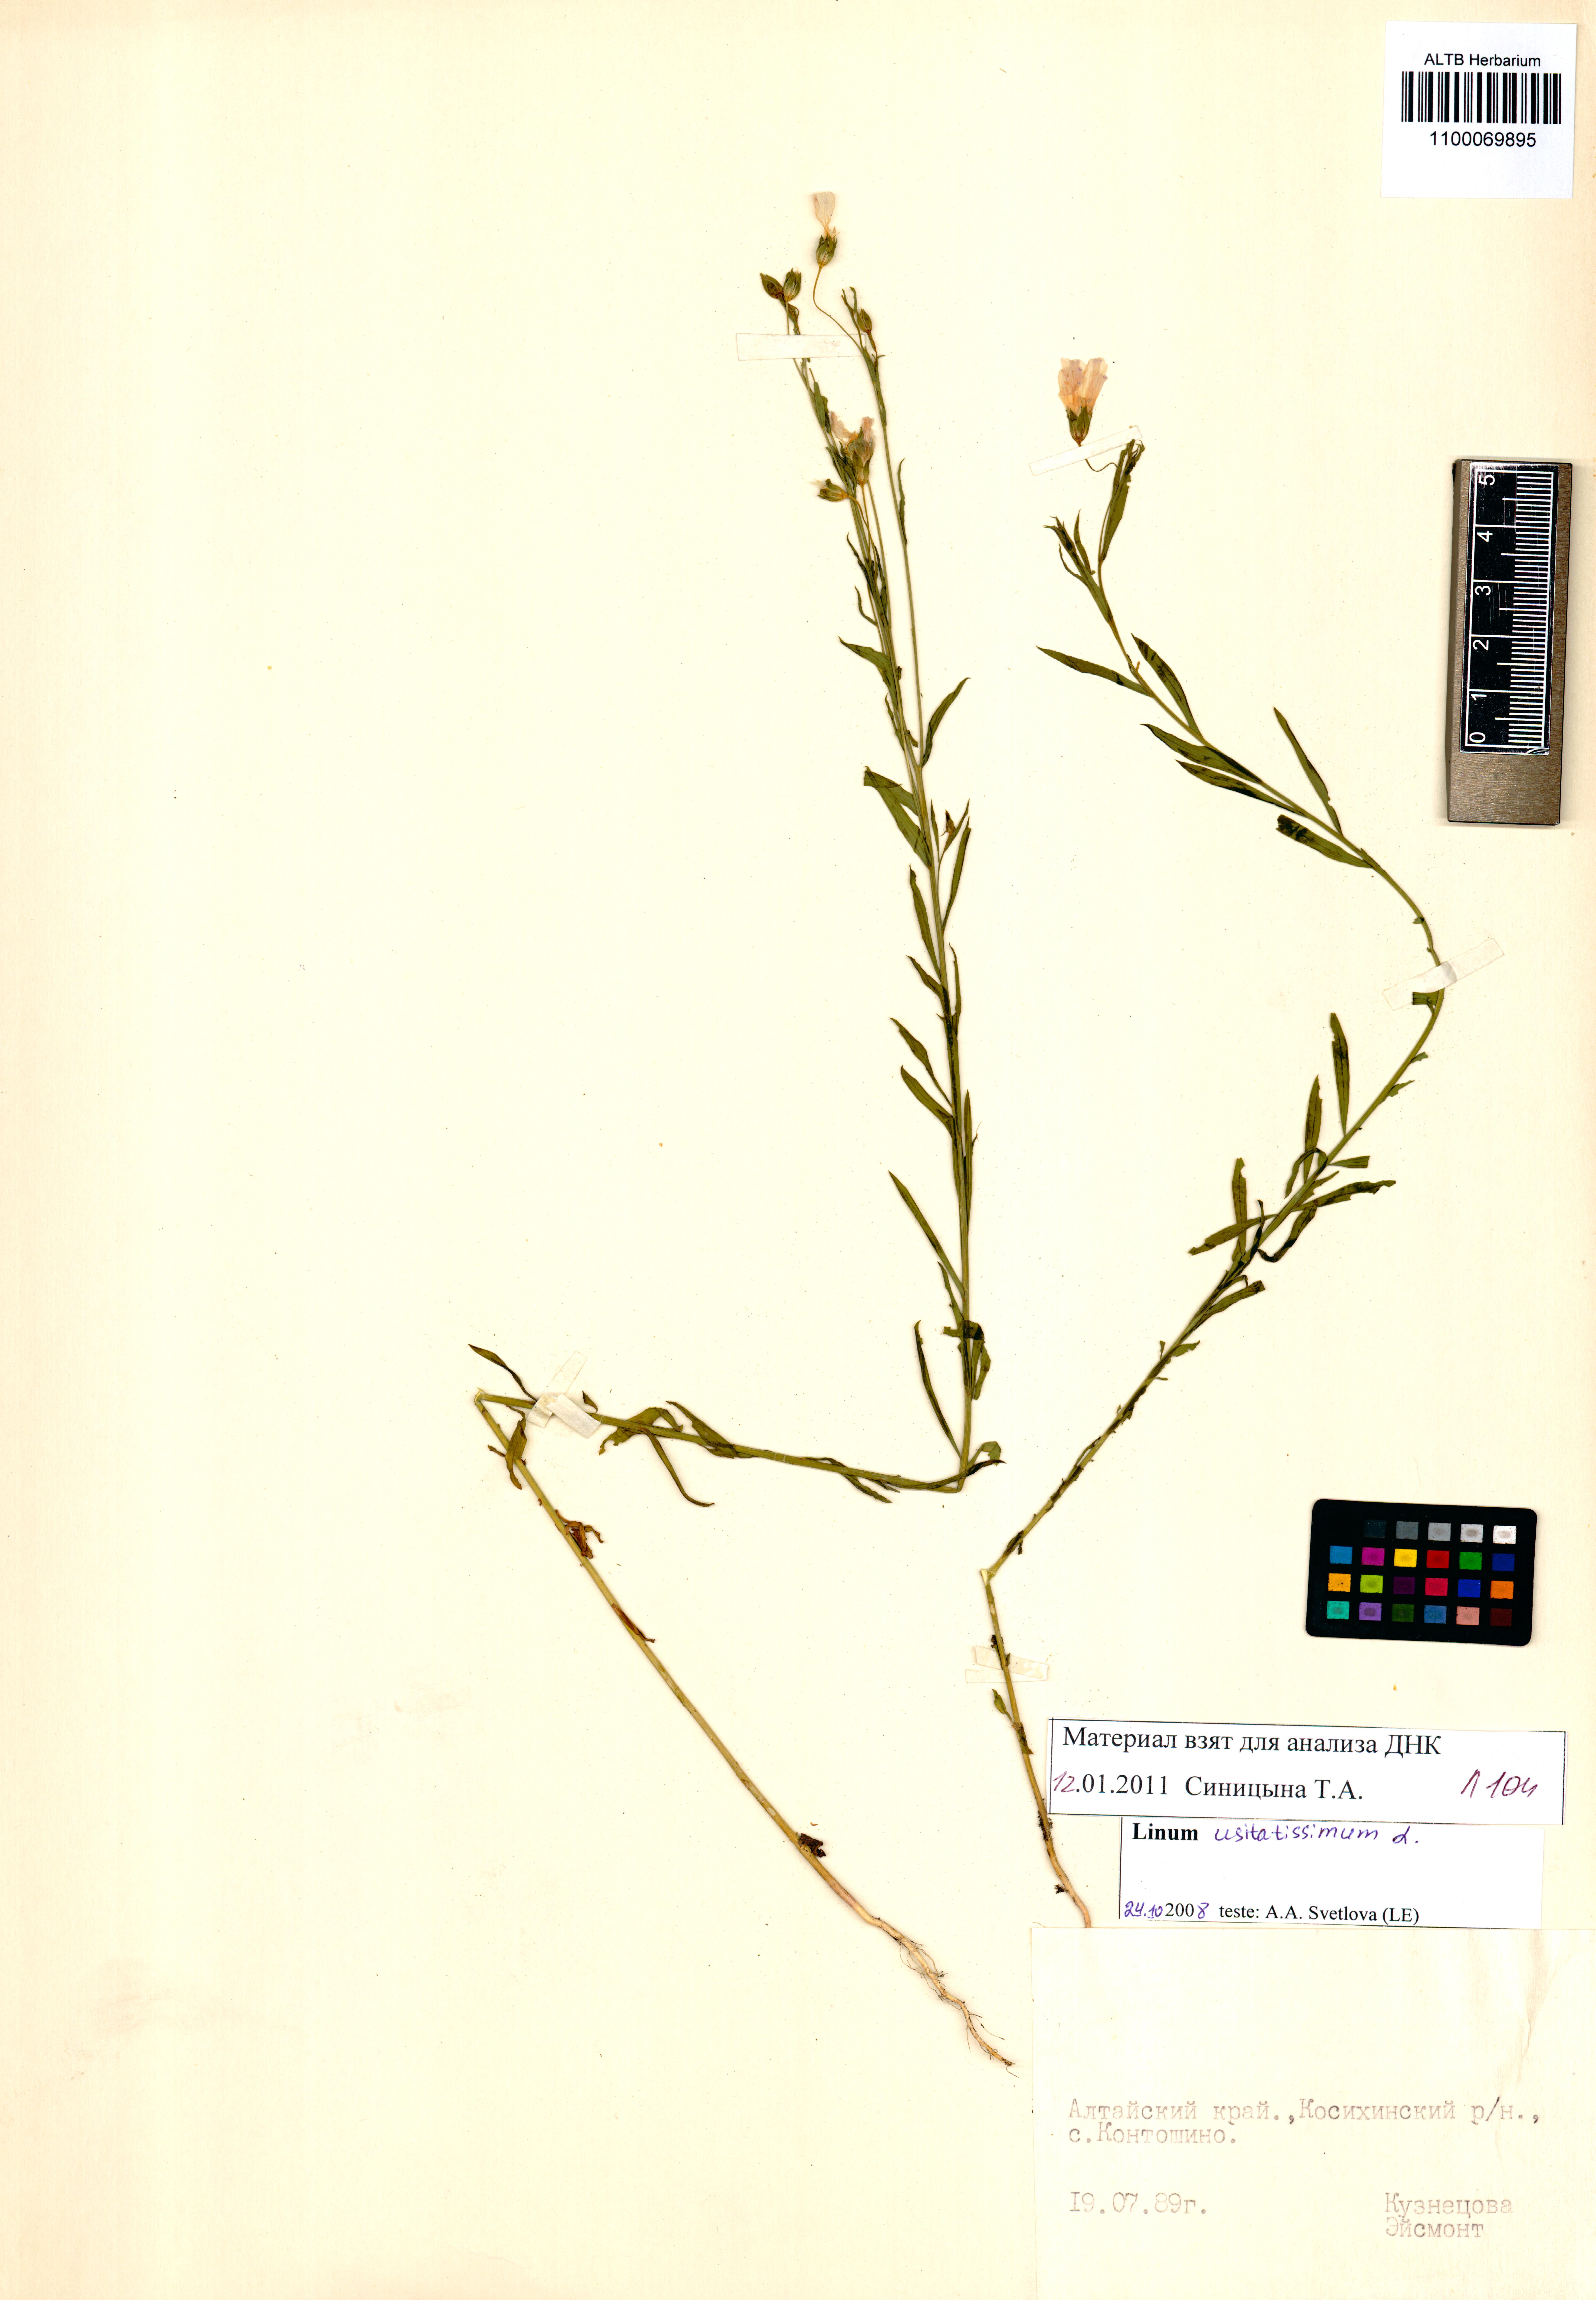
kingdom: Plantae
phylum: Tracheophyta
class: Magnoliopsida
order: Malpighiales
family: Linaceae
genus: Linum
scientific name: Linum usitatissimum
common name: Flax
